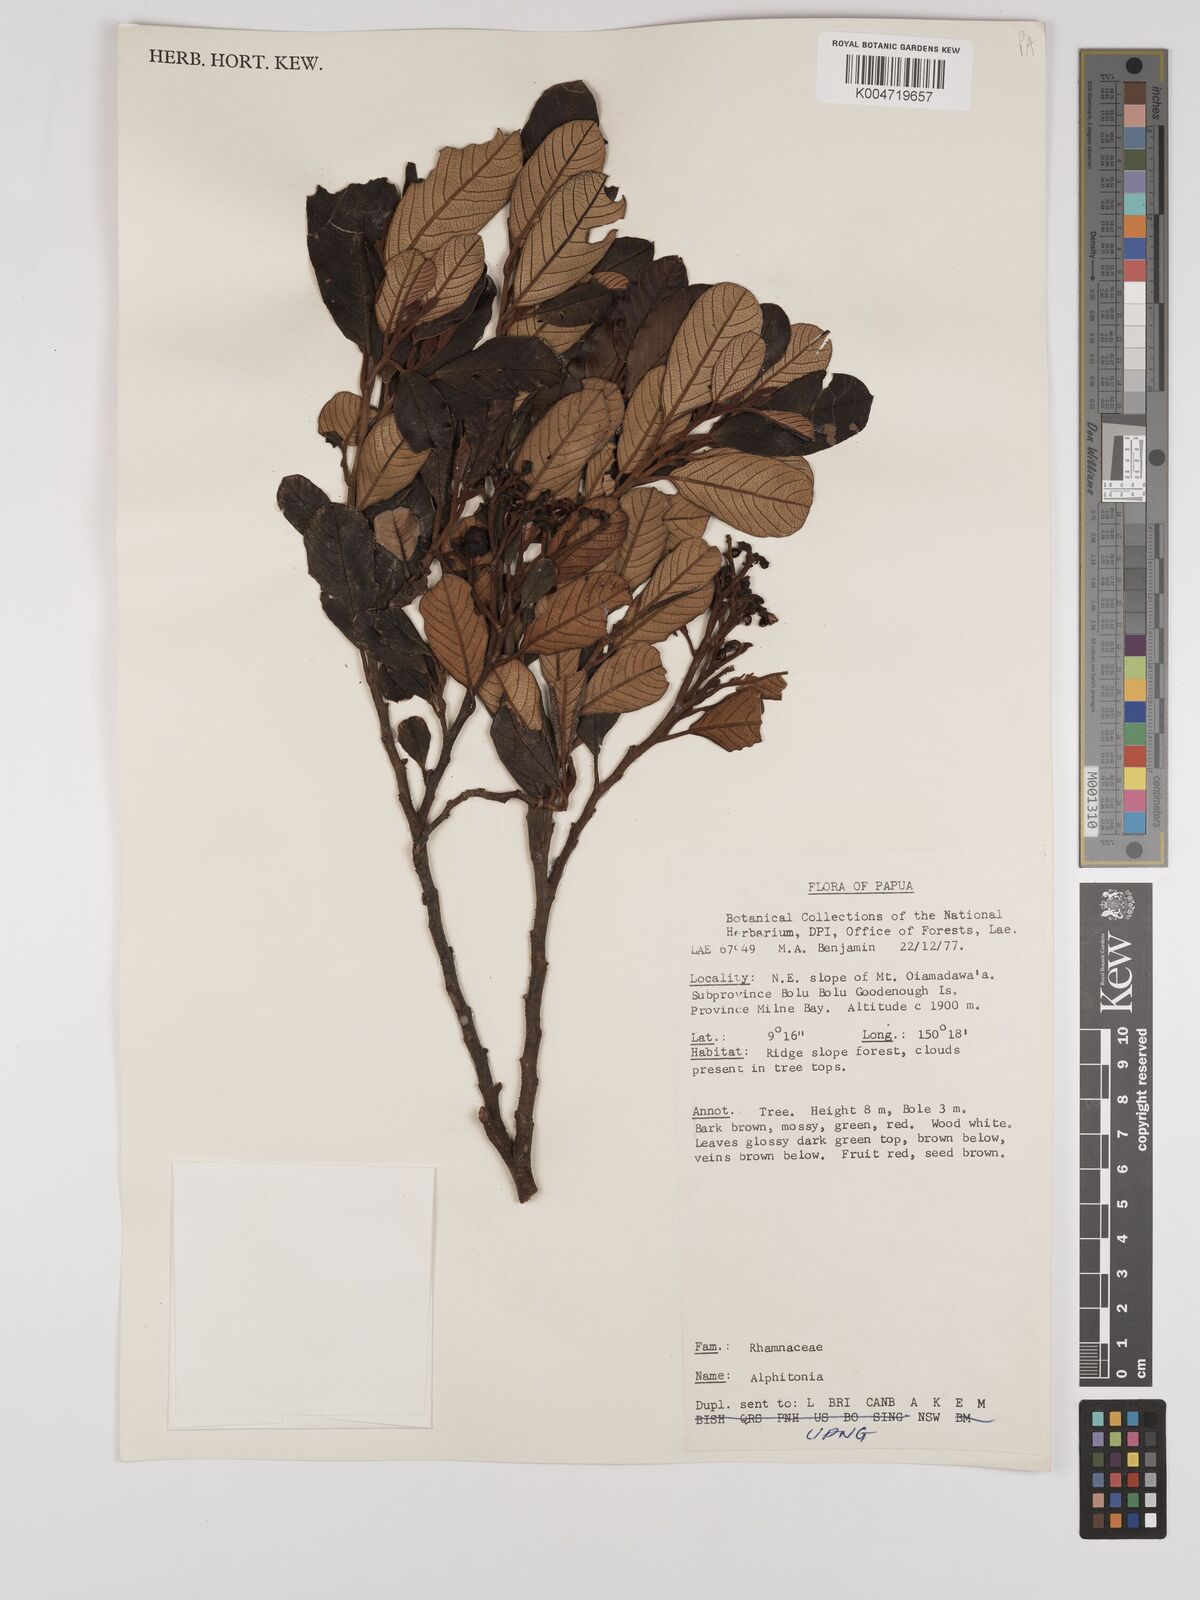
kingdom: Plantae
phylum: Tracheophyta
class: Magnoliopsida
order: Rosales
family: Rhamnaceae
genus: Alphitonia
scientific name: Alphitonia
